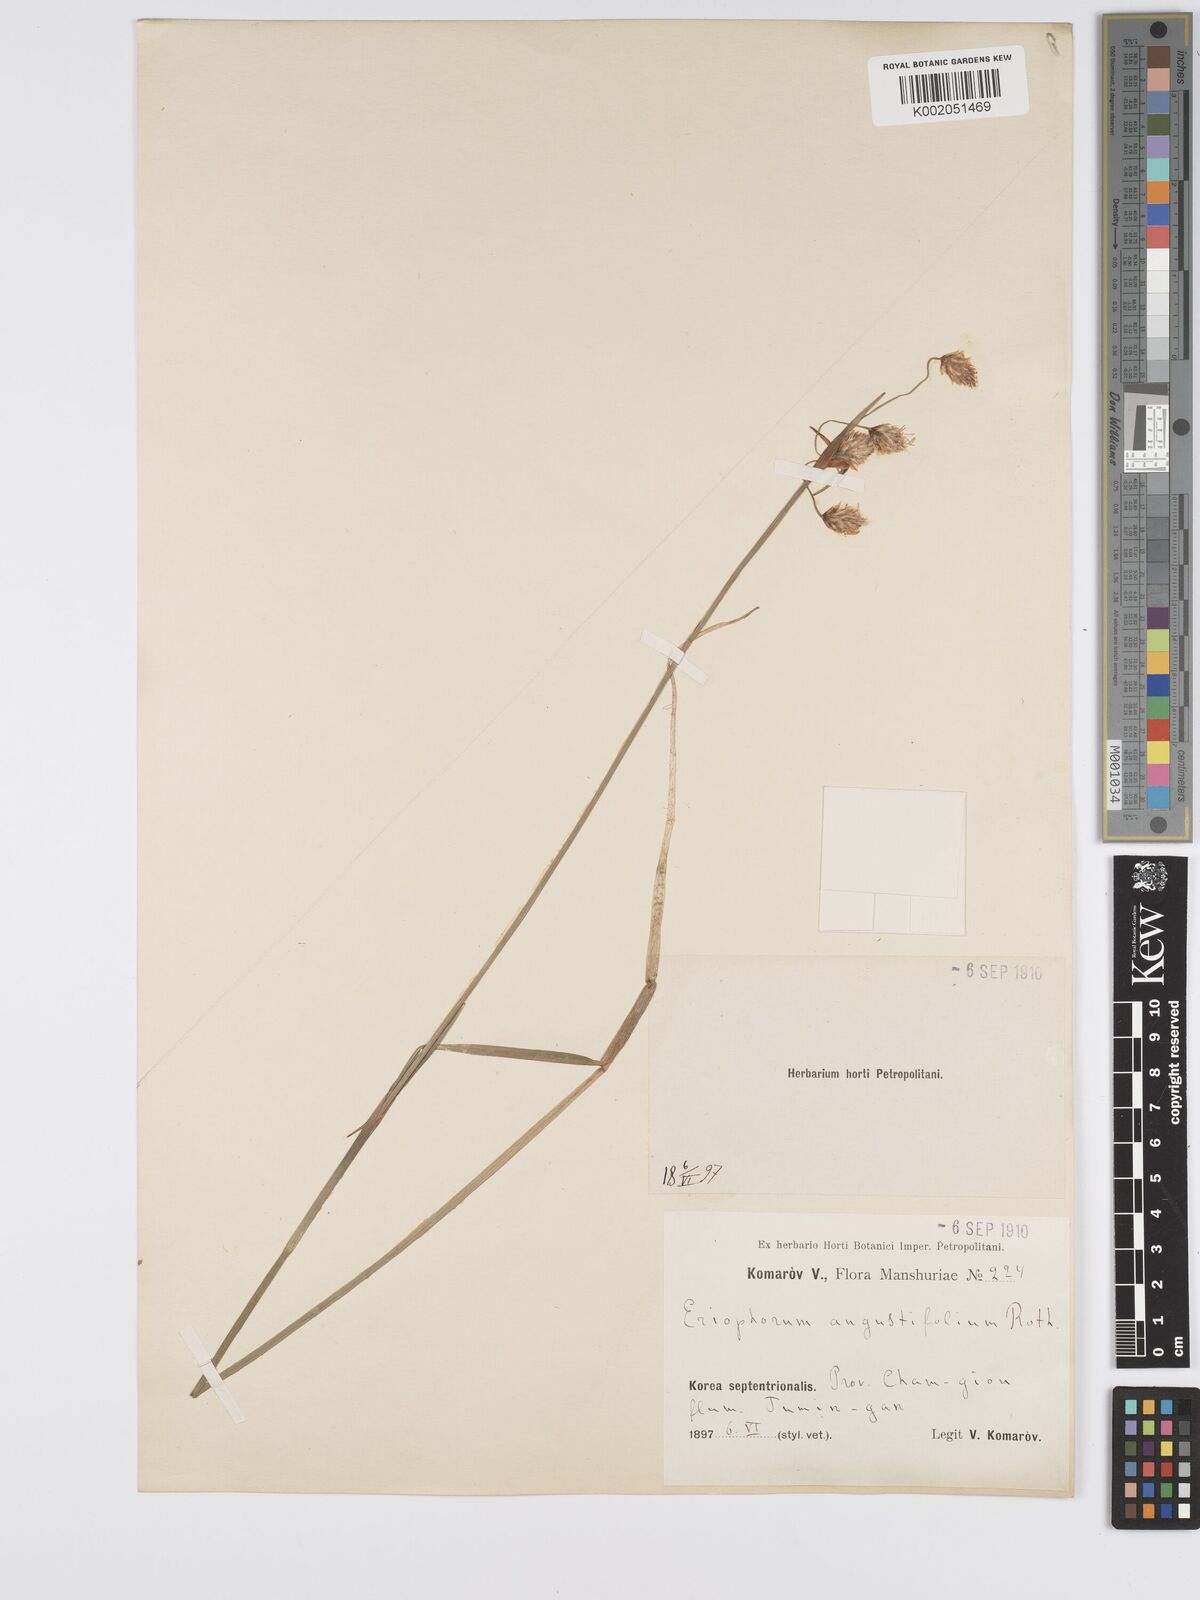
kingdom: Plantae
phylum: Tracheophyta
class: Liliopsida
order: Poales
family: Cyperaceae
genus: Eriophorum
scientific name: Eriophorum angustifolium
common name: Common cottongrass
